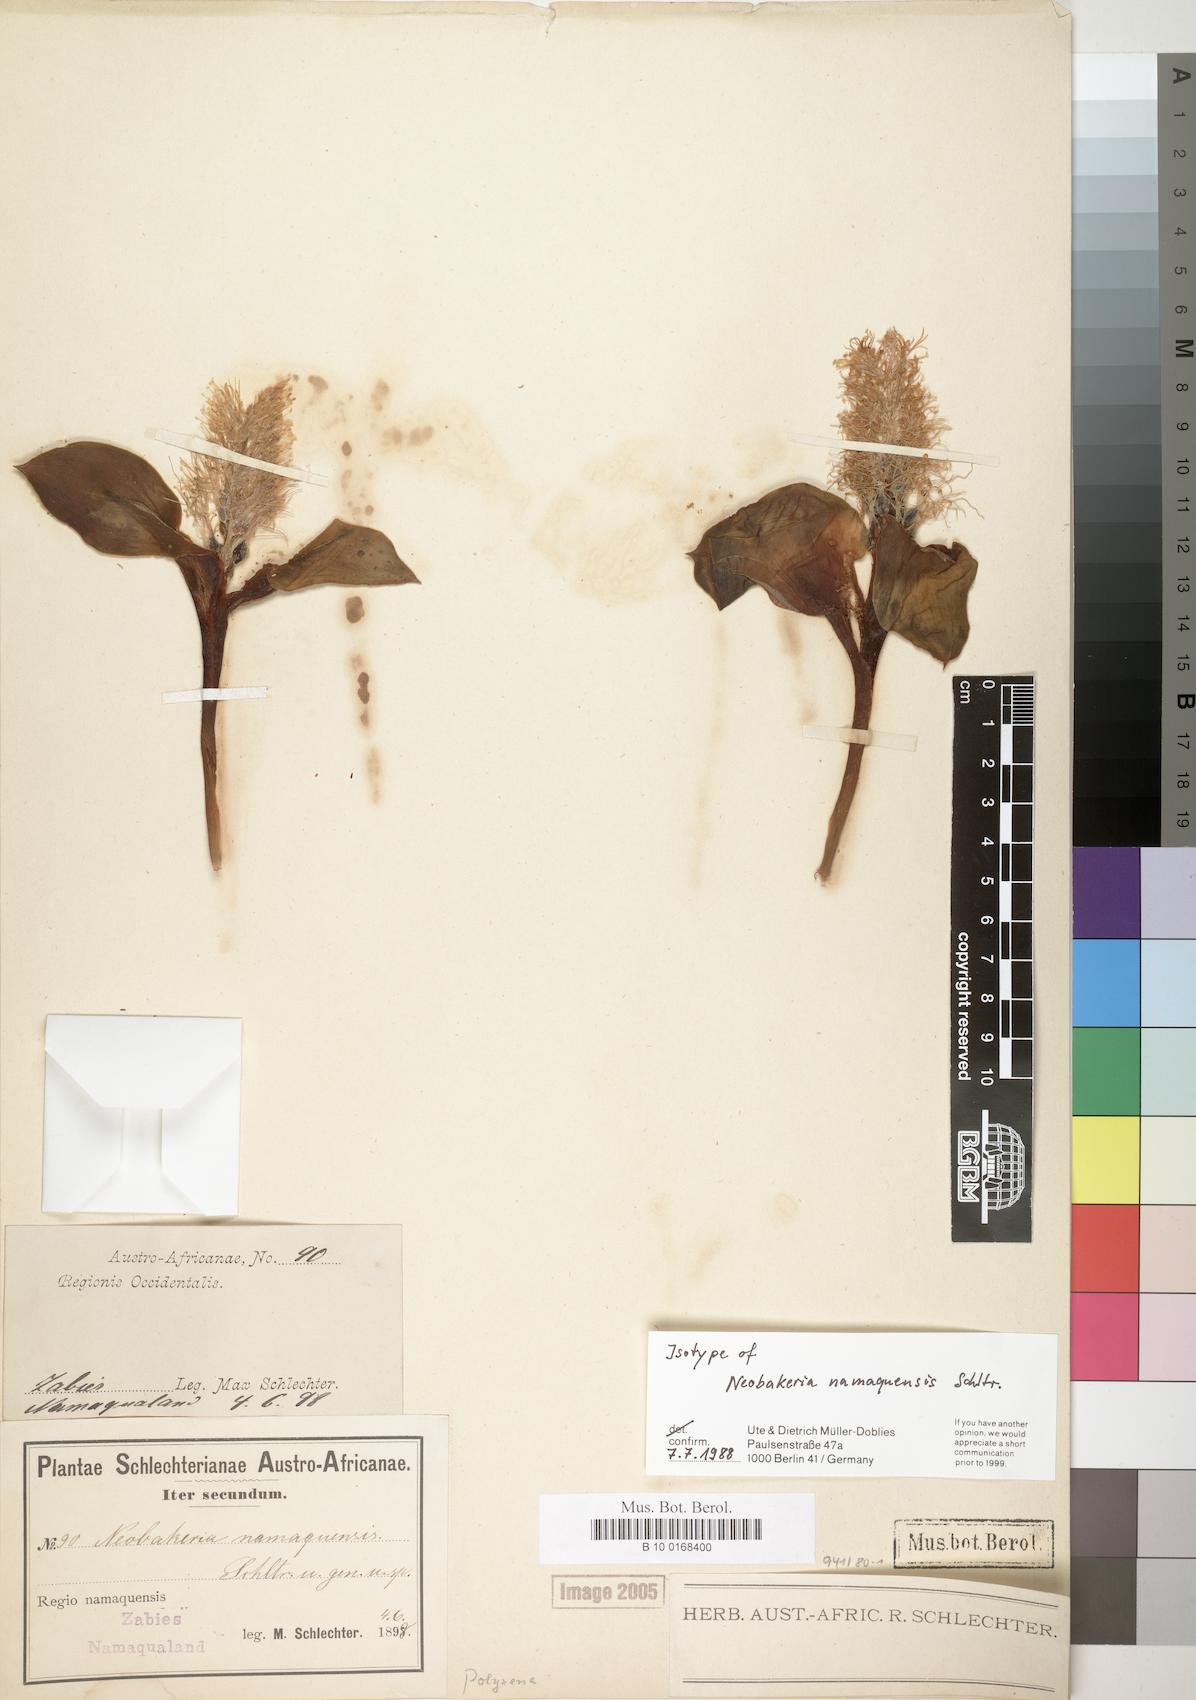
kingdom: Plantae
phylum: Tracheophyta
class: Liliopsida
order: Asparagales
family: Asparagaceae
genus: Daubenya
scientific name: Daubenya namaquensis
